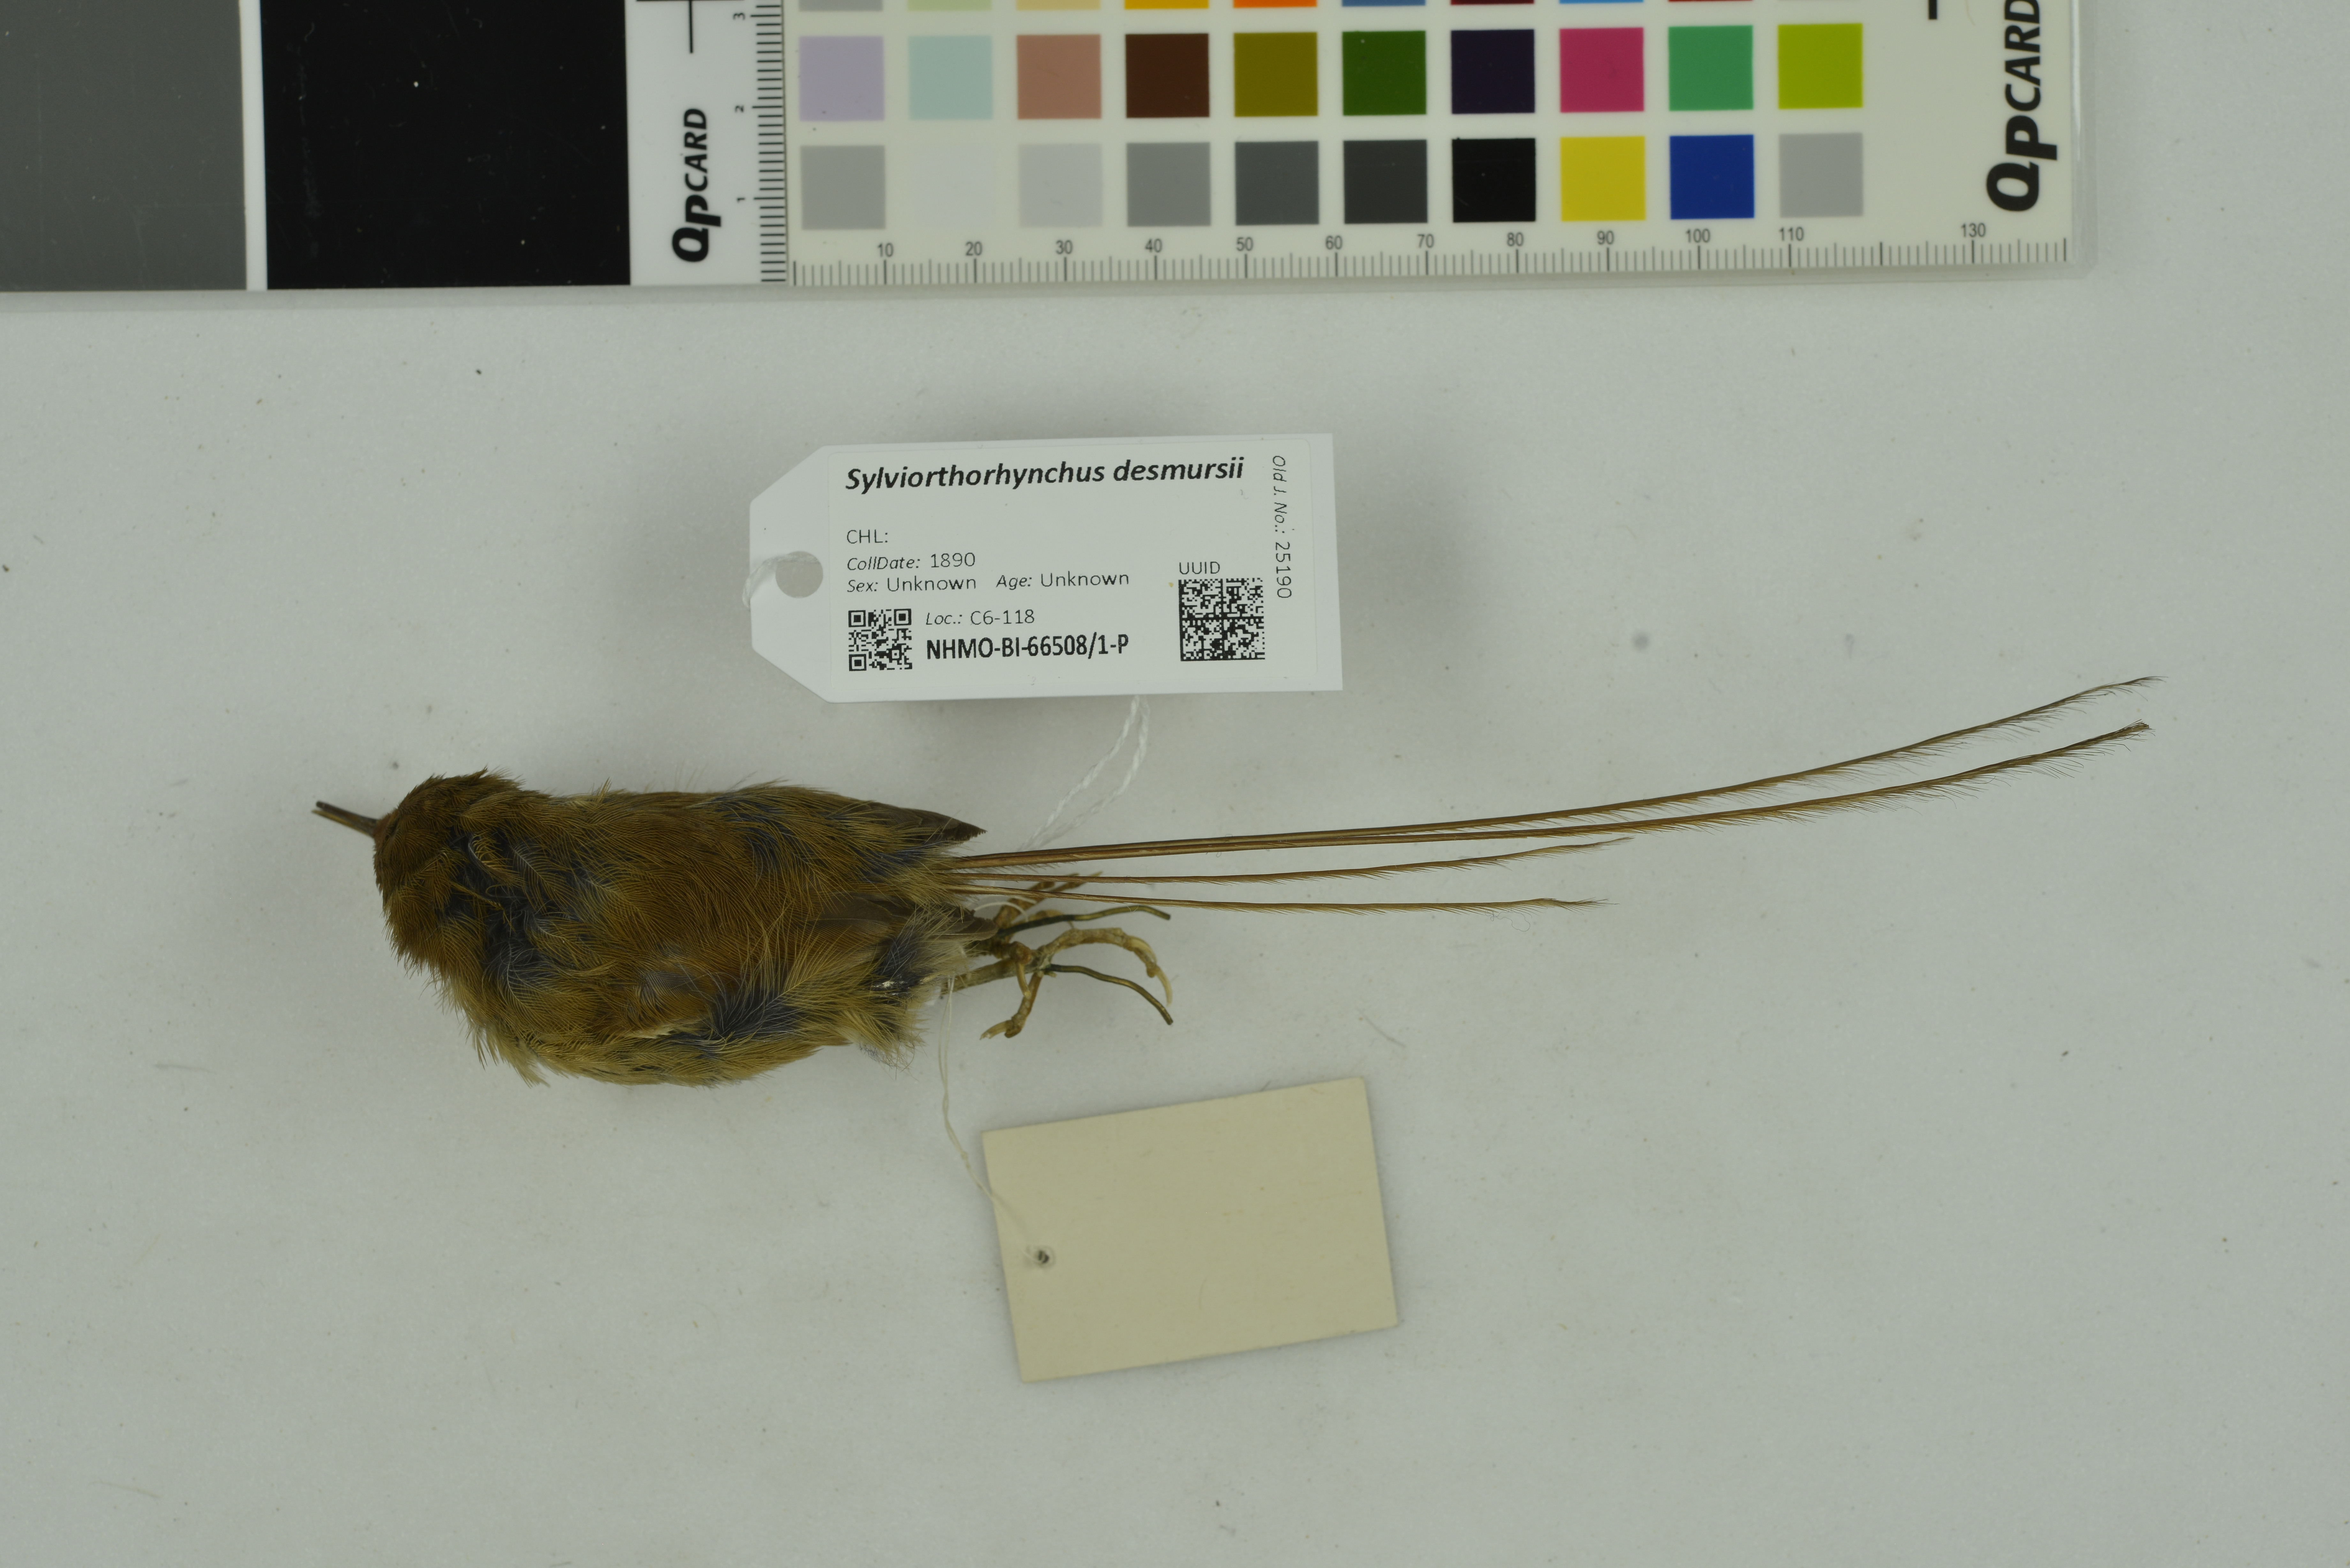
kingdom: Animalia
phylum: Chordata
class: Aves
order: Passeriformes
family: Furnariidae
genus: Sylviorthorhynchus
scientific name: Sylviorthorhynchus desmurii
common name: Des murs's wiretail
